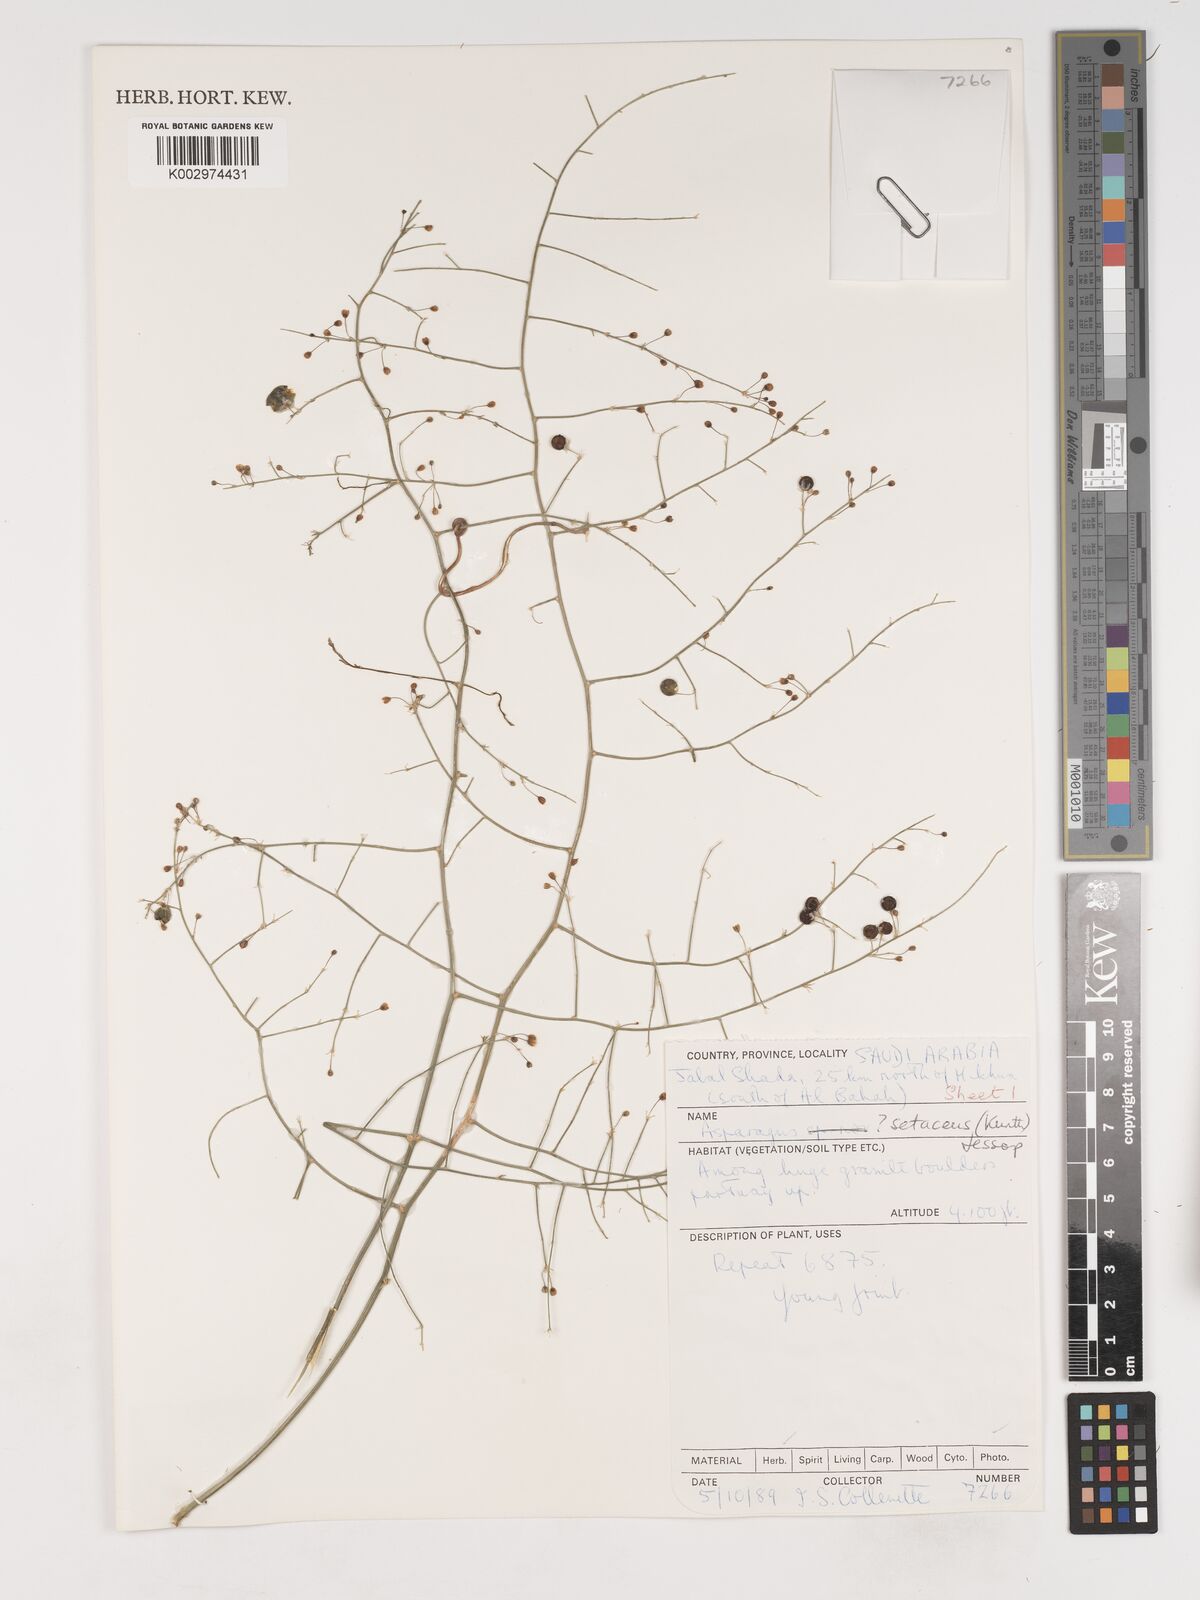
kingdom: Plantae
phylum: Tracheophyta
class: Liliopsida
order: Asparagales
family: Asparagaceae
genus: Asparagus
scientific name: Asparagus africanus
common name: Asparagus-fern
